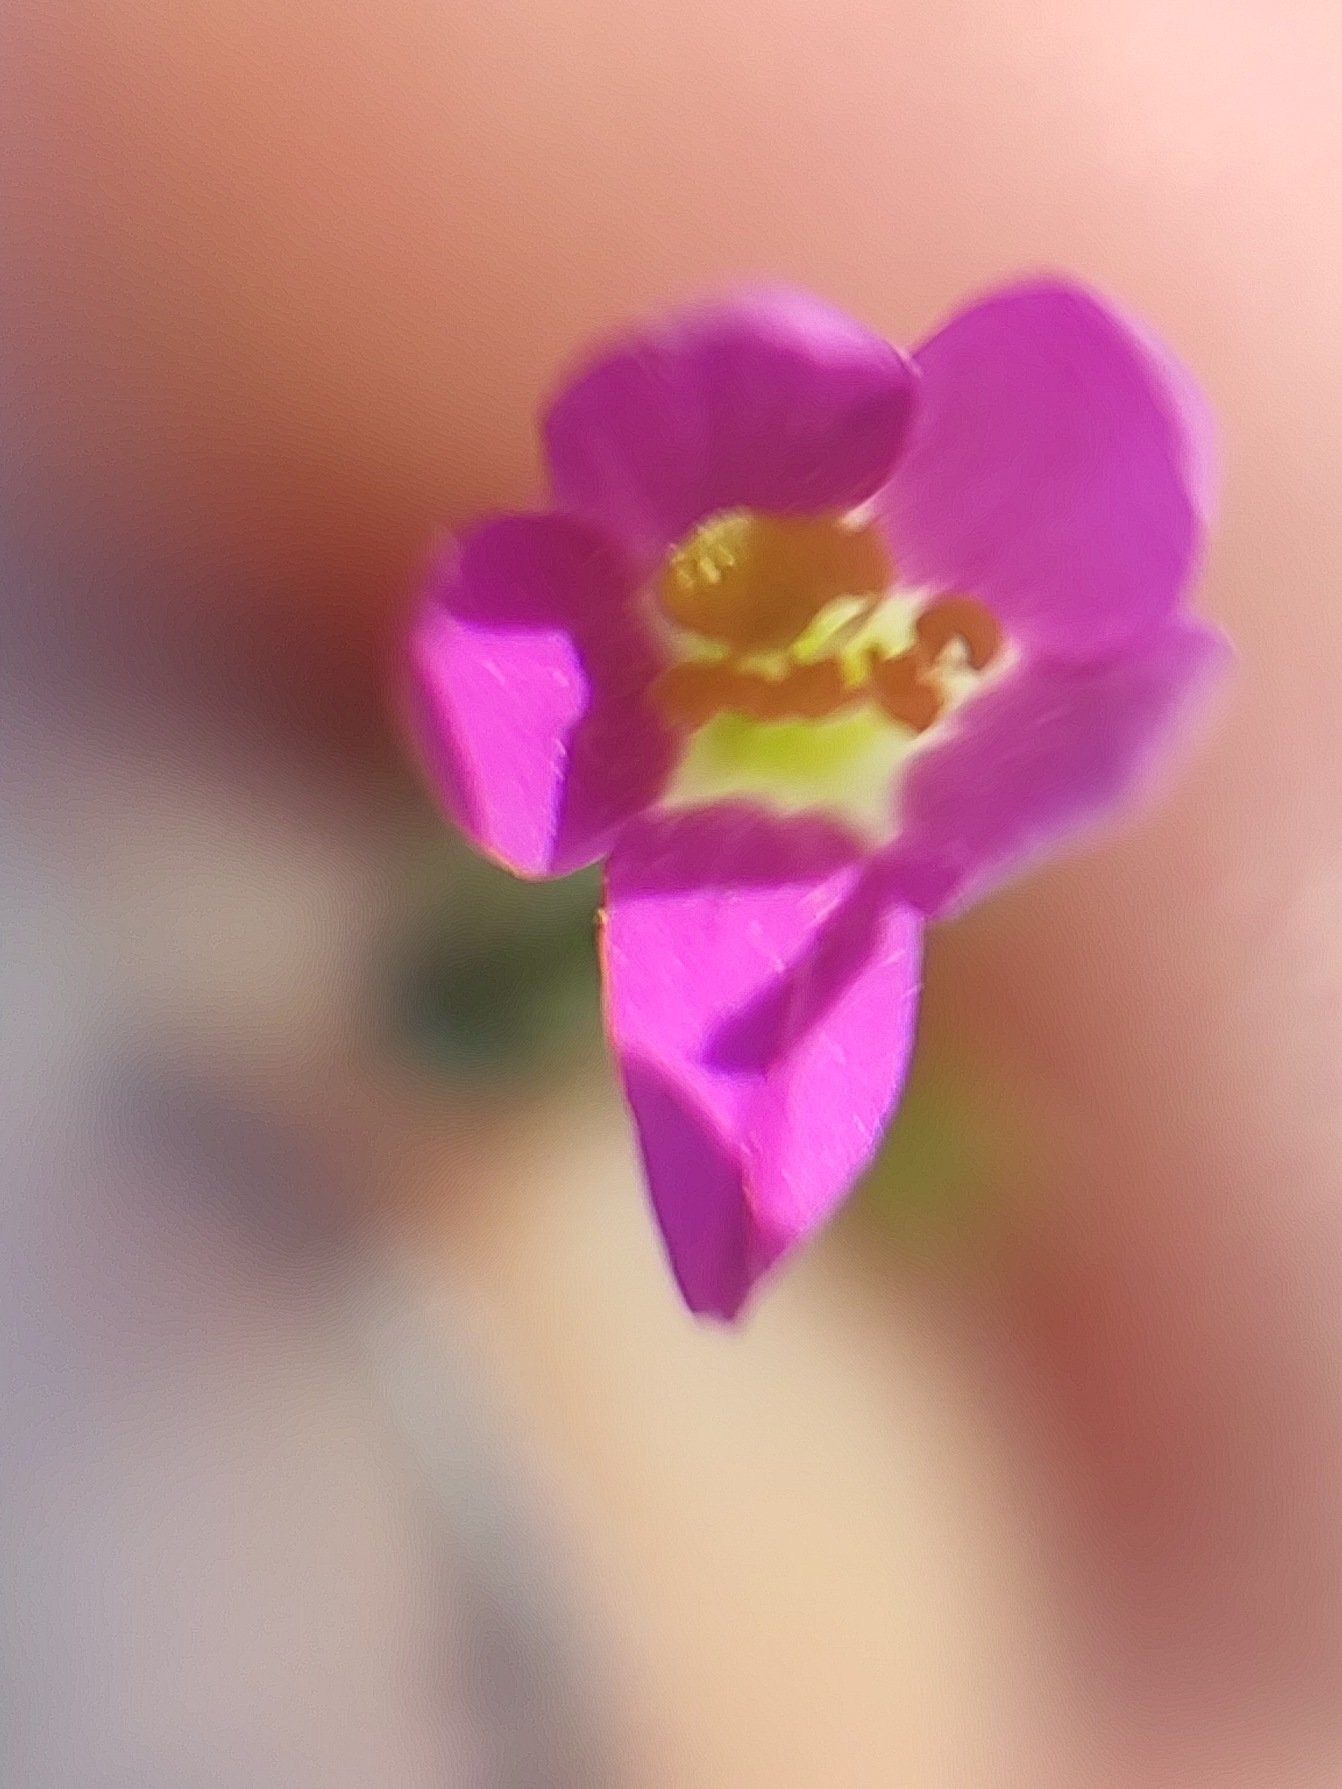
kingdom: Plantae
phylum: Tracheophyta
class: Magnoliopsida
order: Gentianales
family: Gentianaceae
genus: Centaurium
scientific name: Centaurium pulchellum
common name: Liden tusindgylden
